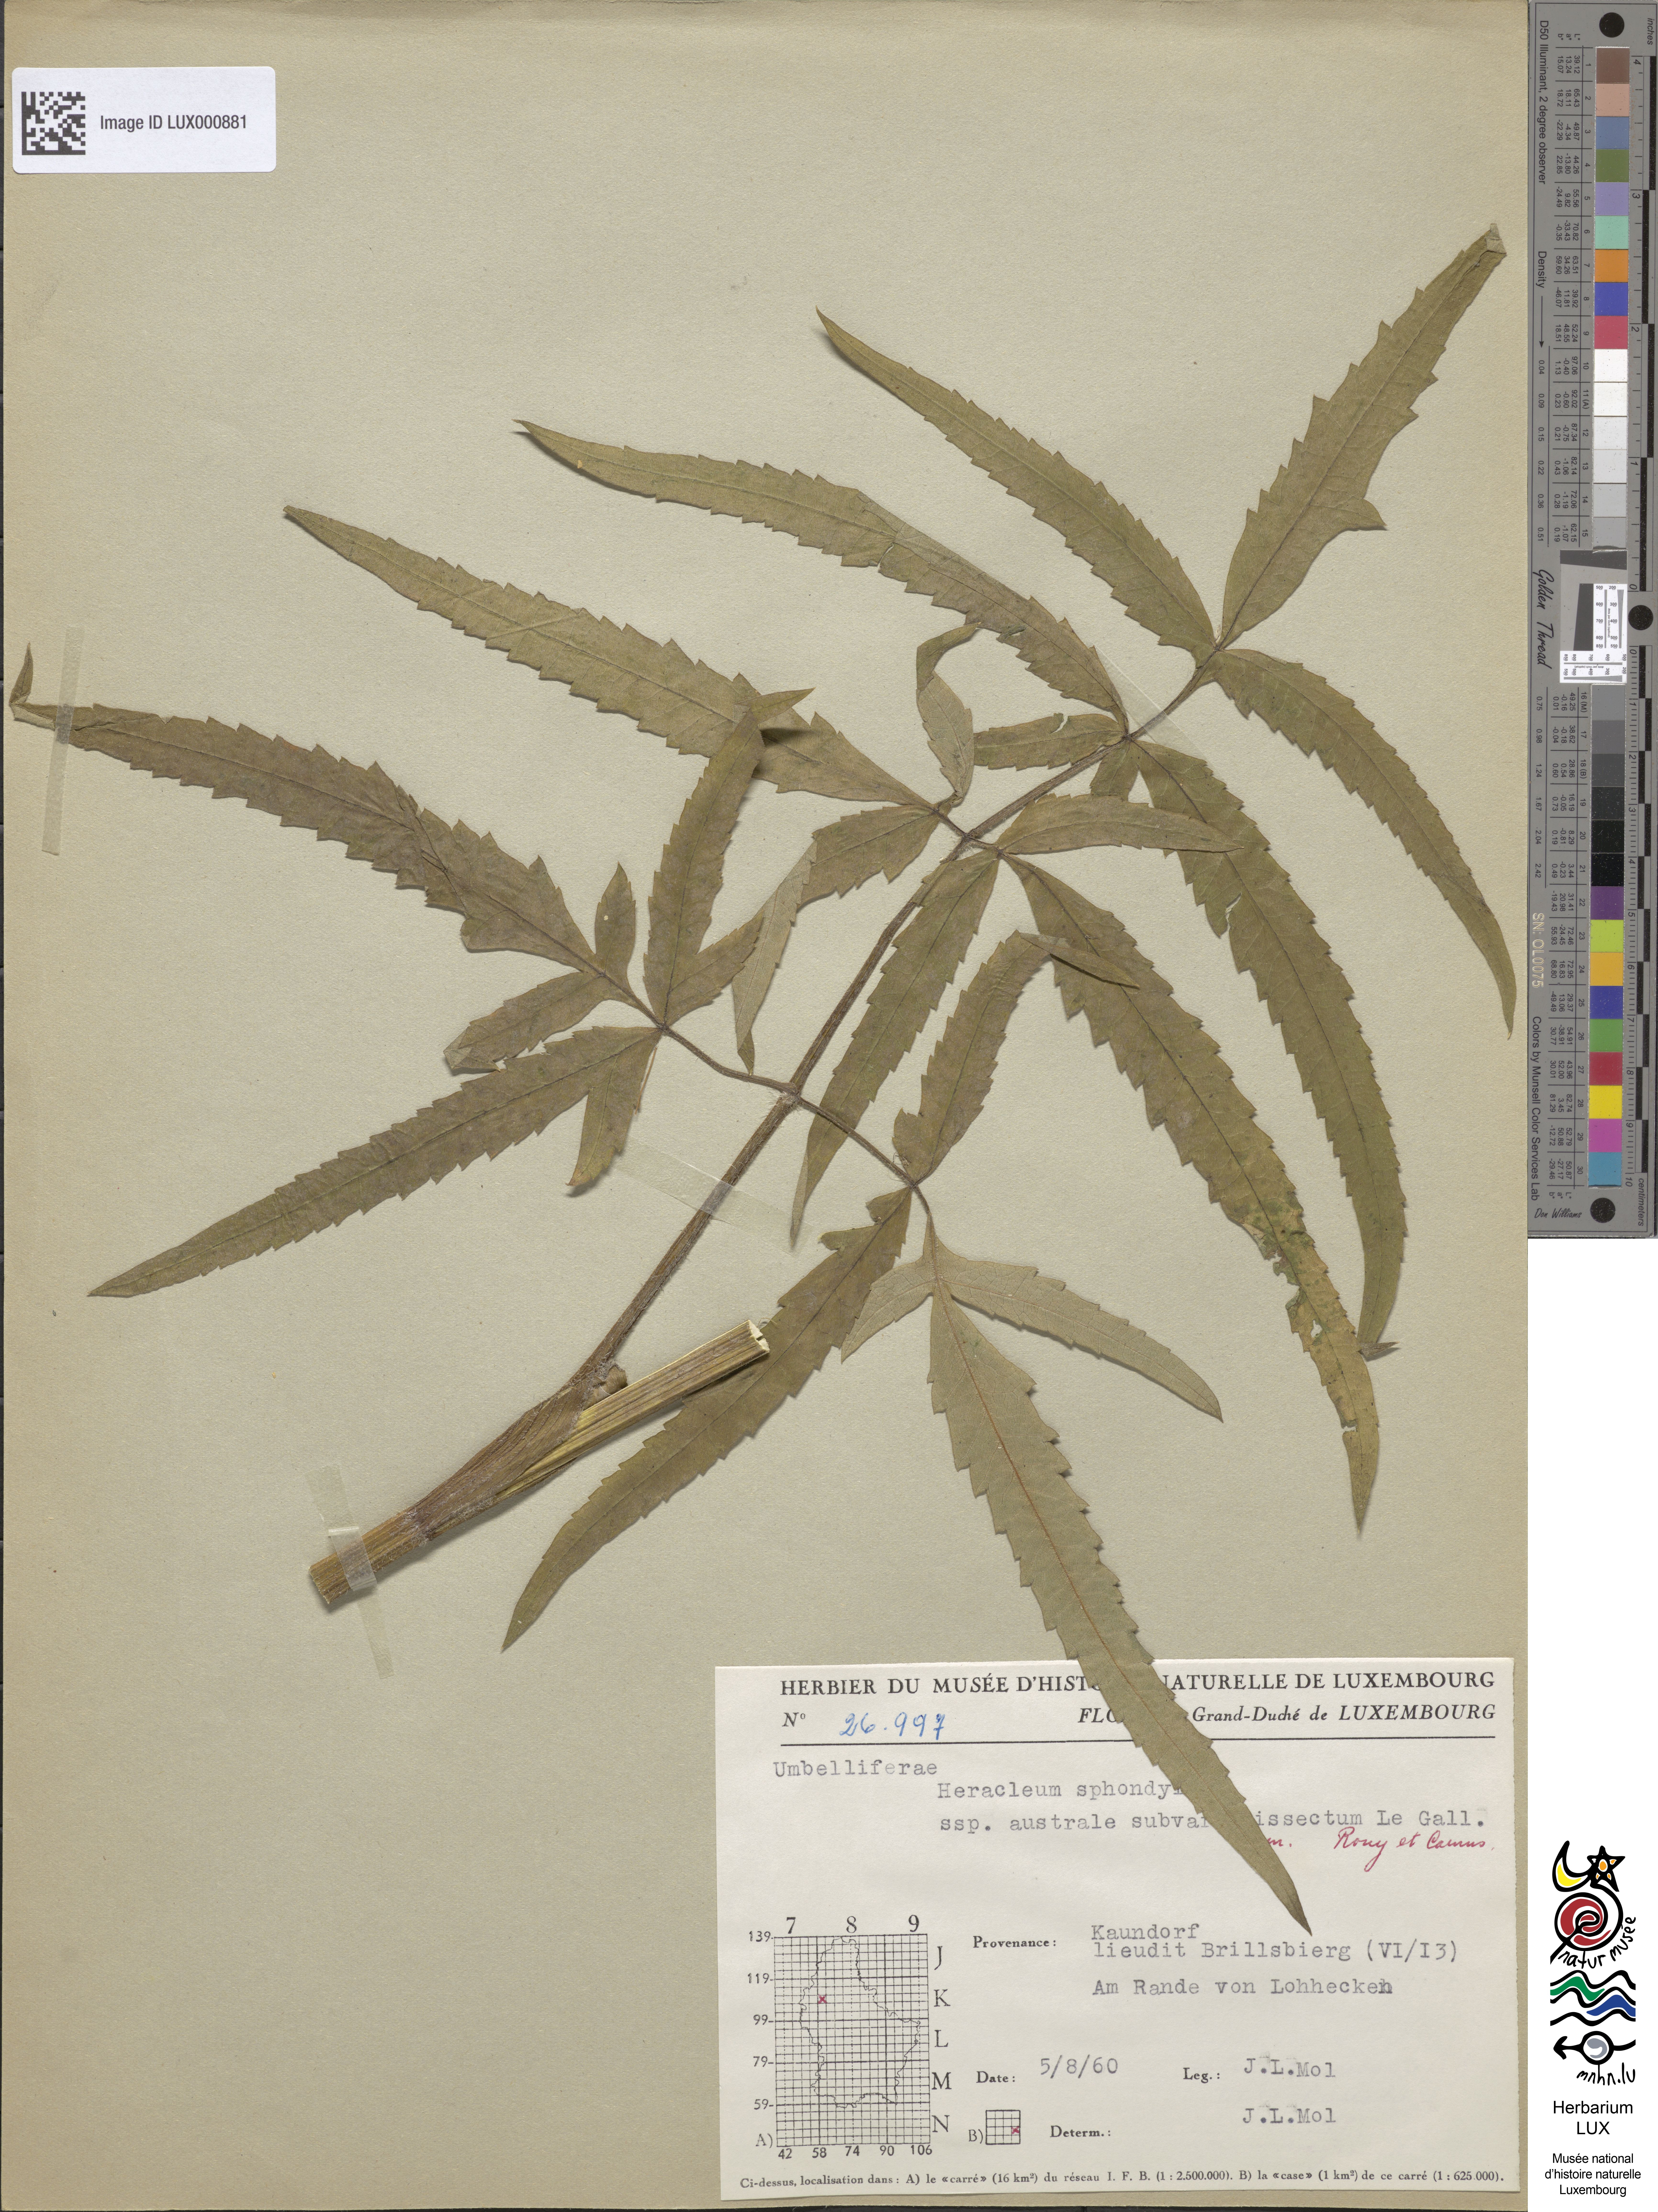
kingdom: Plantae
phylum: Tracheophyta
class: Magnoliopsida
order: Apiales
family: Apiaceae
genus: Heracleum
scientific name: Heracleum sphondylium
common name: Hogweed
